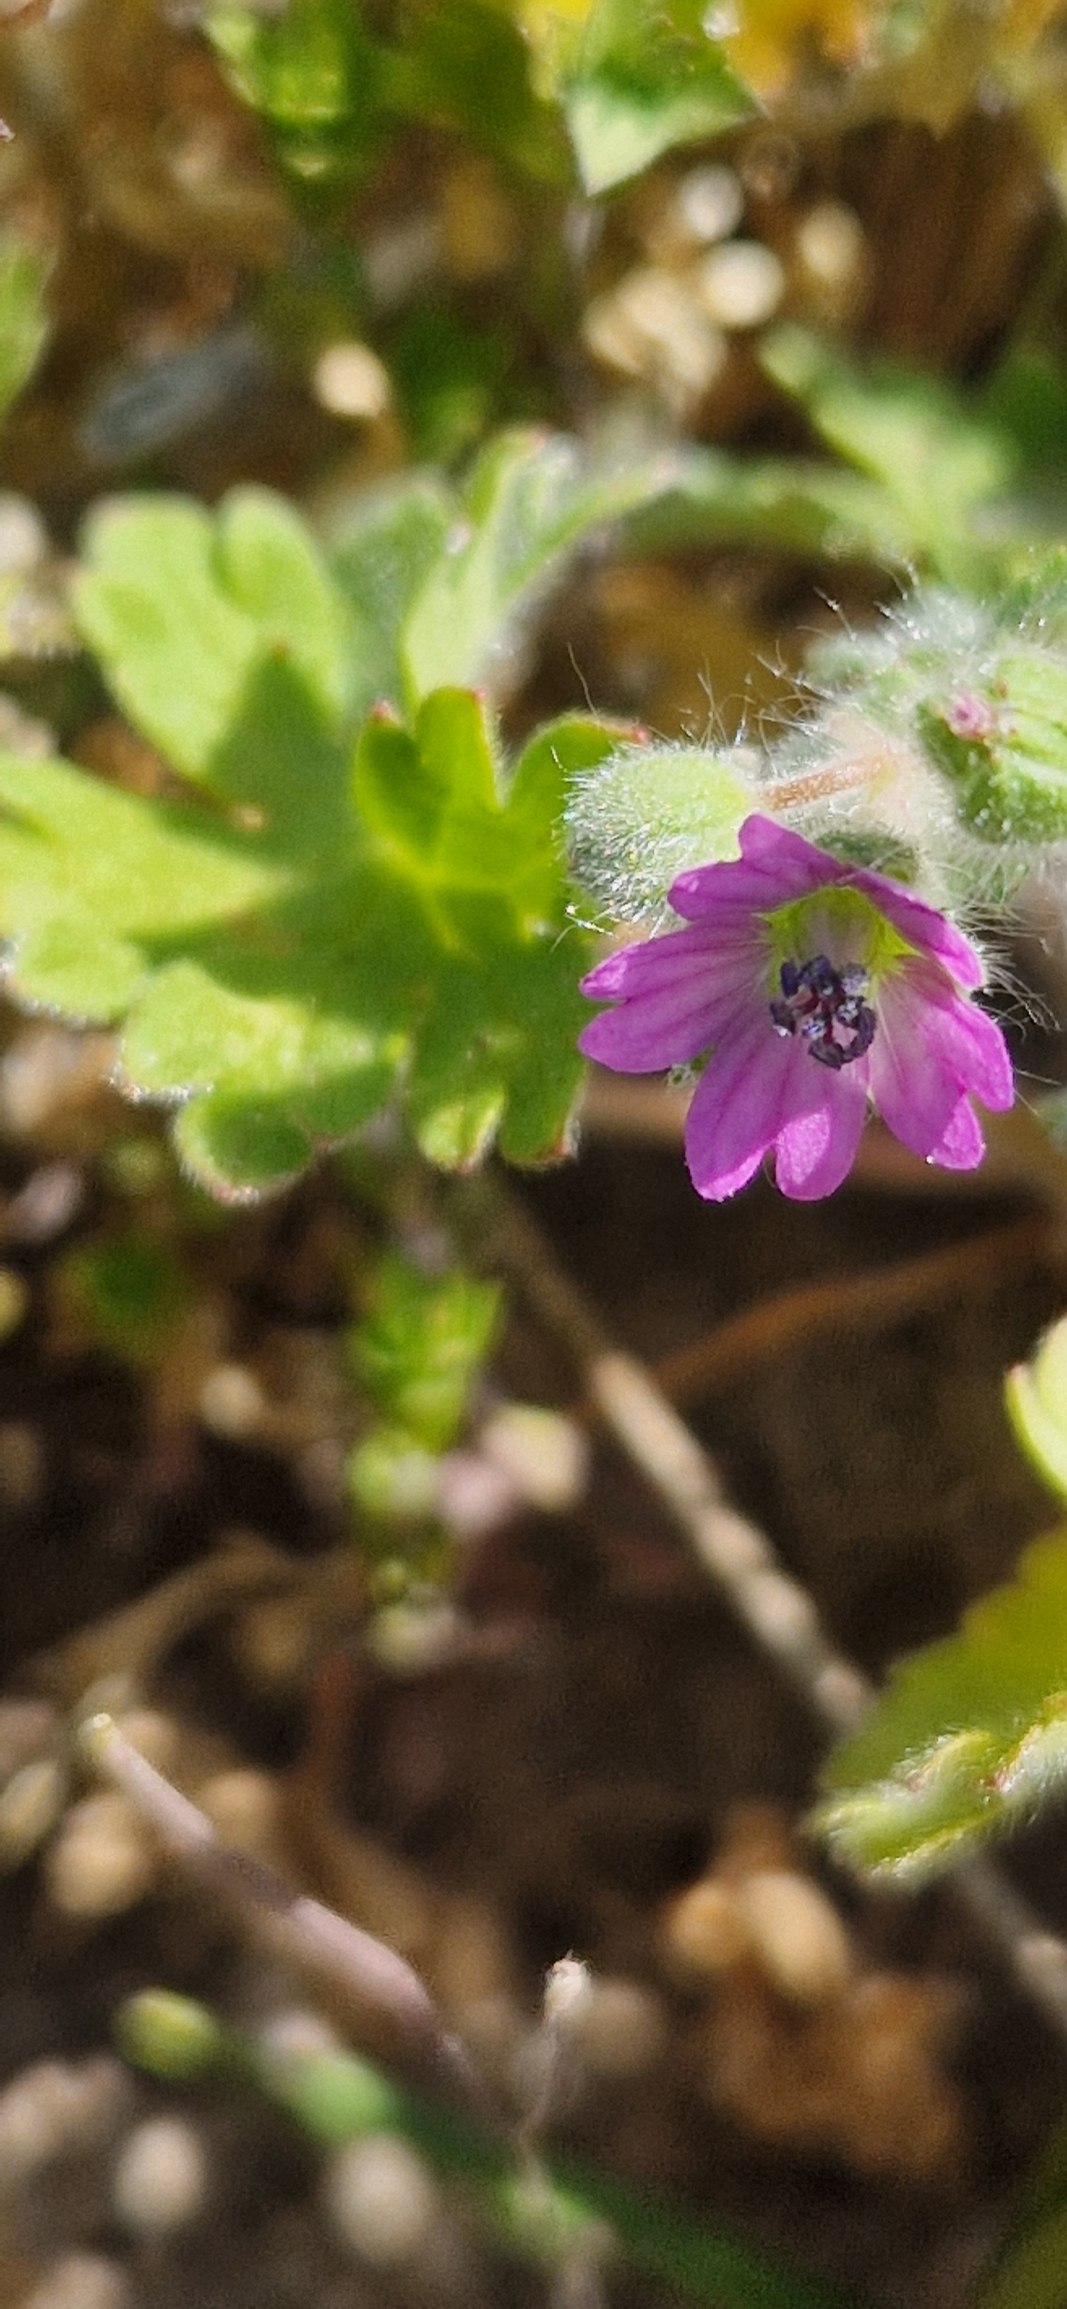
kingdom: Plantae
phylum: Tracheophyta
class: Magnoliopsida
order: Geraniales
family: Geraniaceae
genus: Geranium
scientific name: Geranium molle
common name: Blød storkenæb
